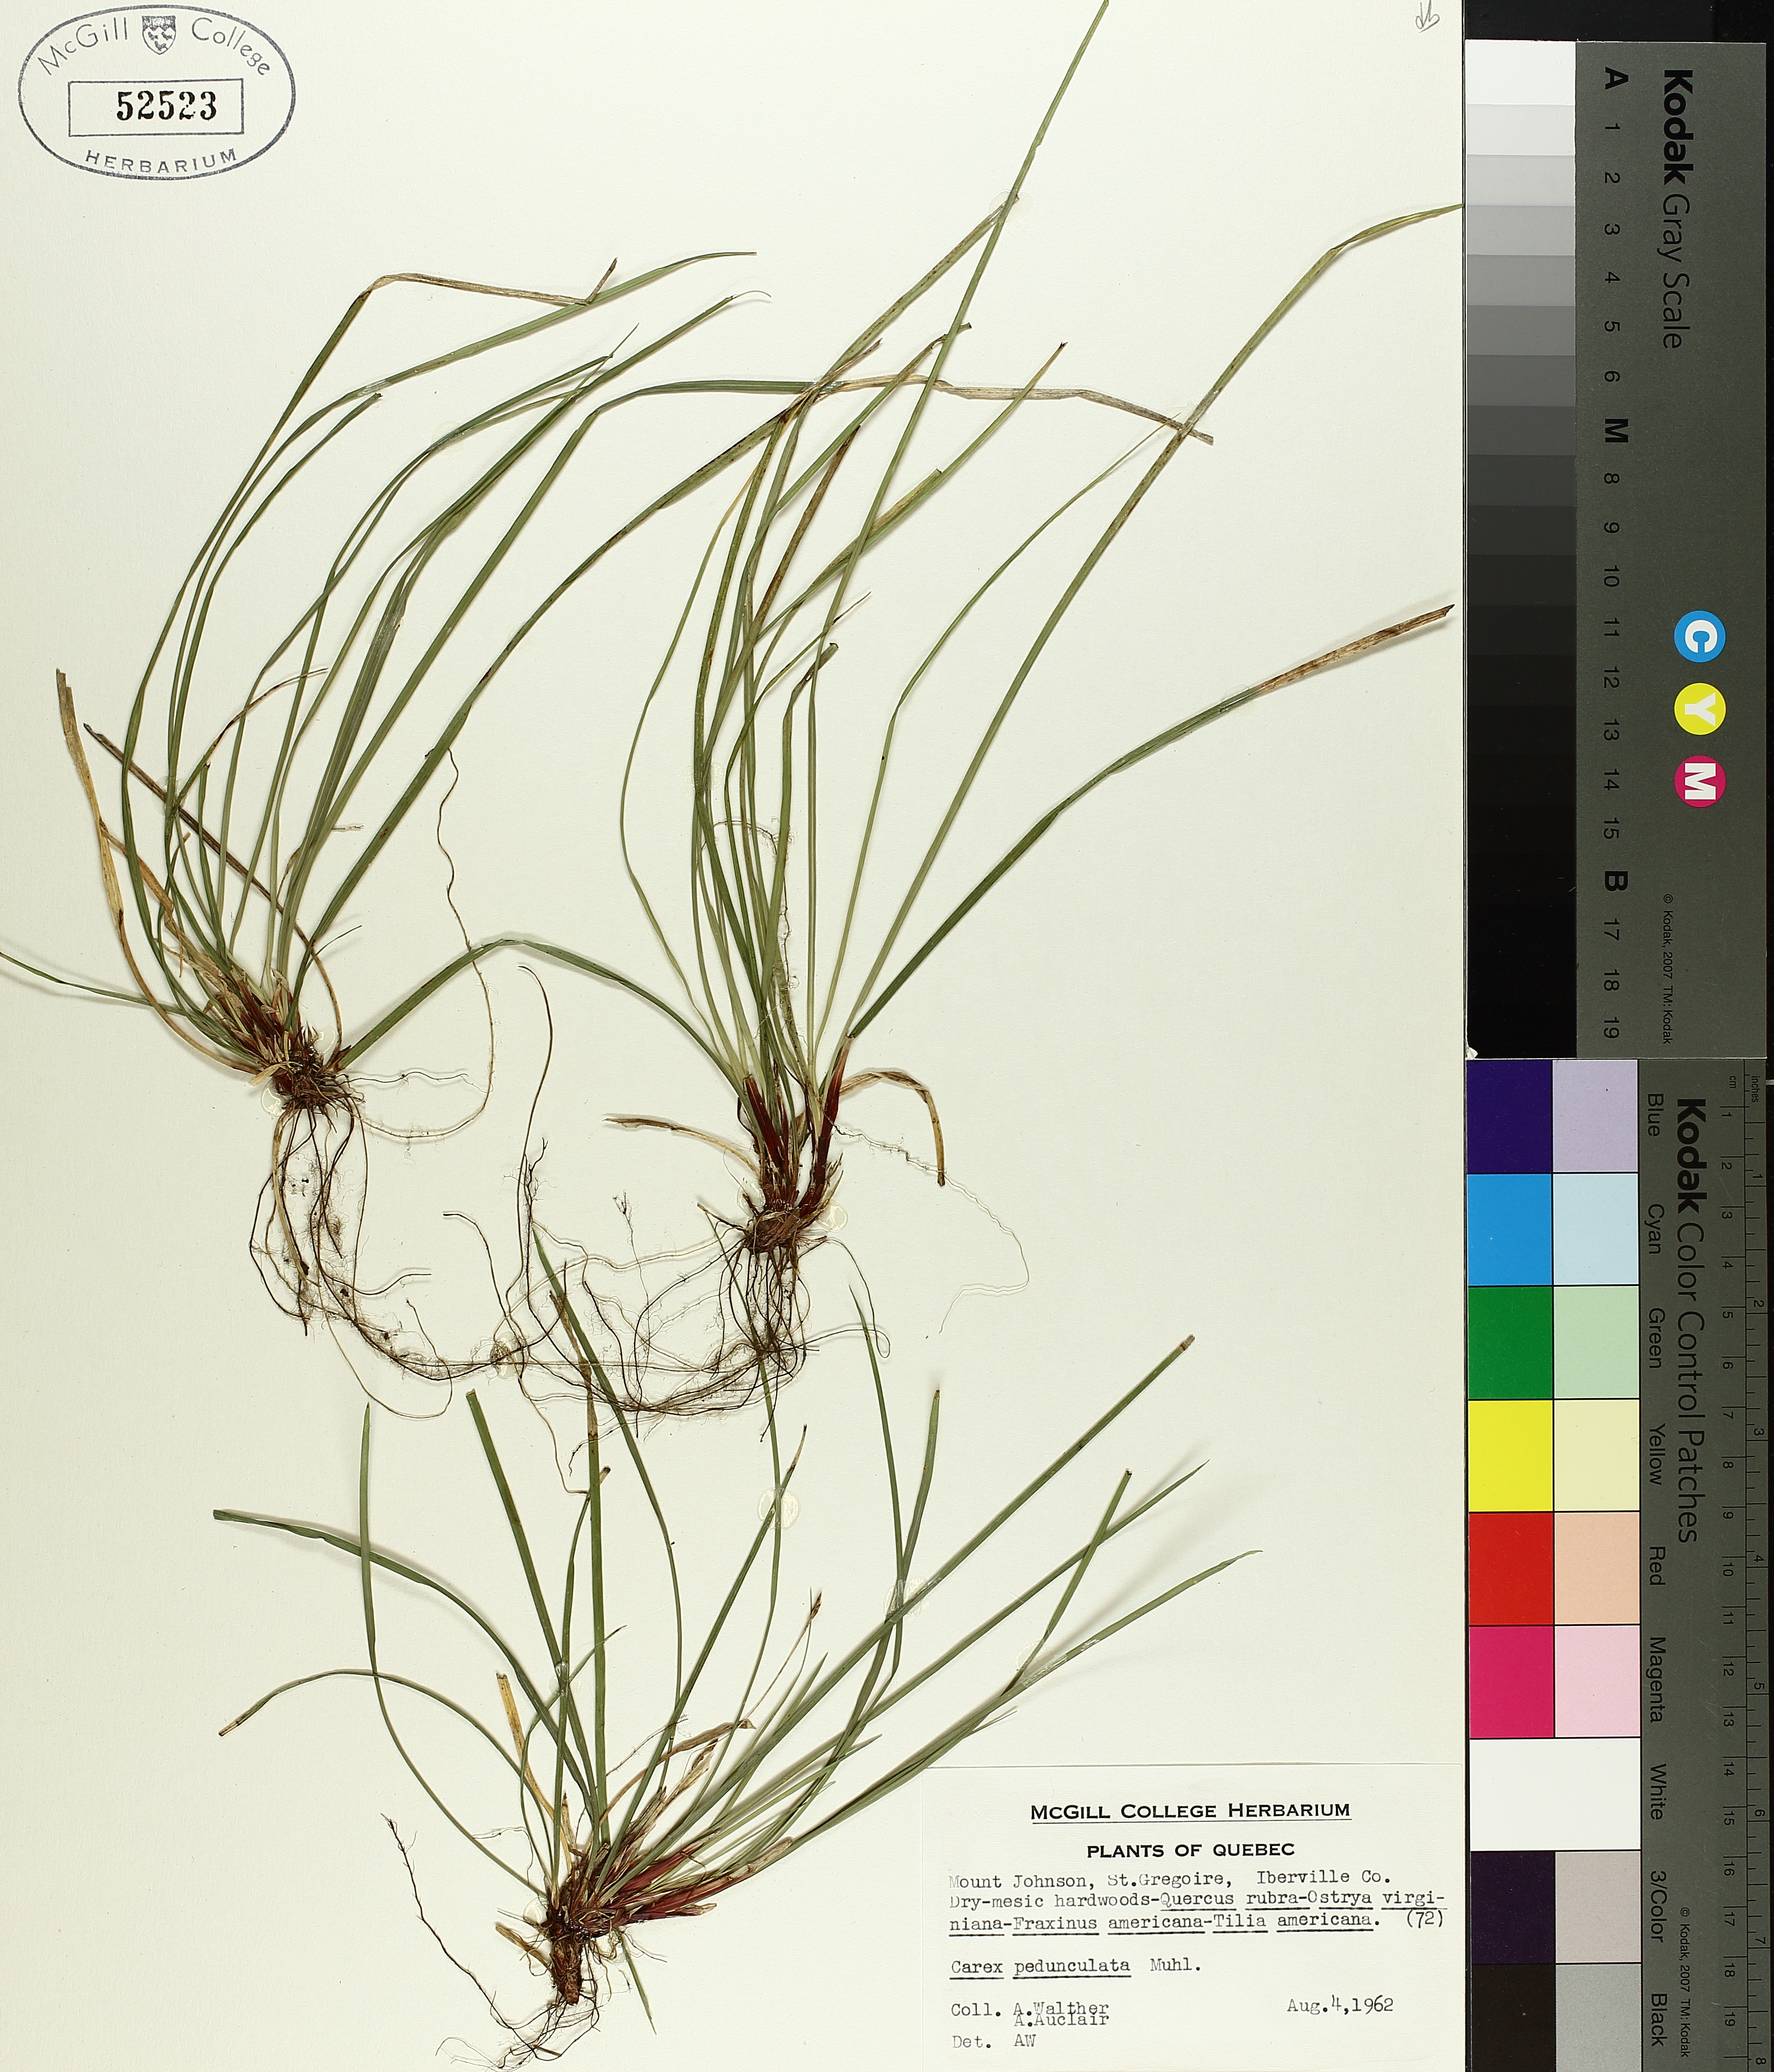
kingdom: Plantae
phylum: Tracheophyta
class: Liliopsida
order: Poales
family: Cyperaceae
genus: Carex
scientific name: Carex pedunculata
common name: Pedunculate sedge
